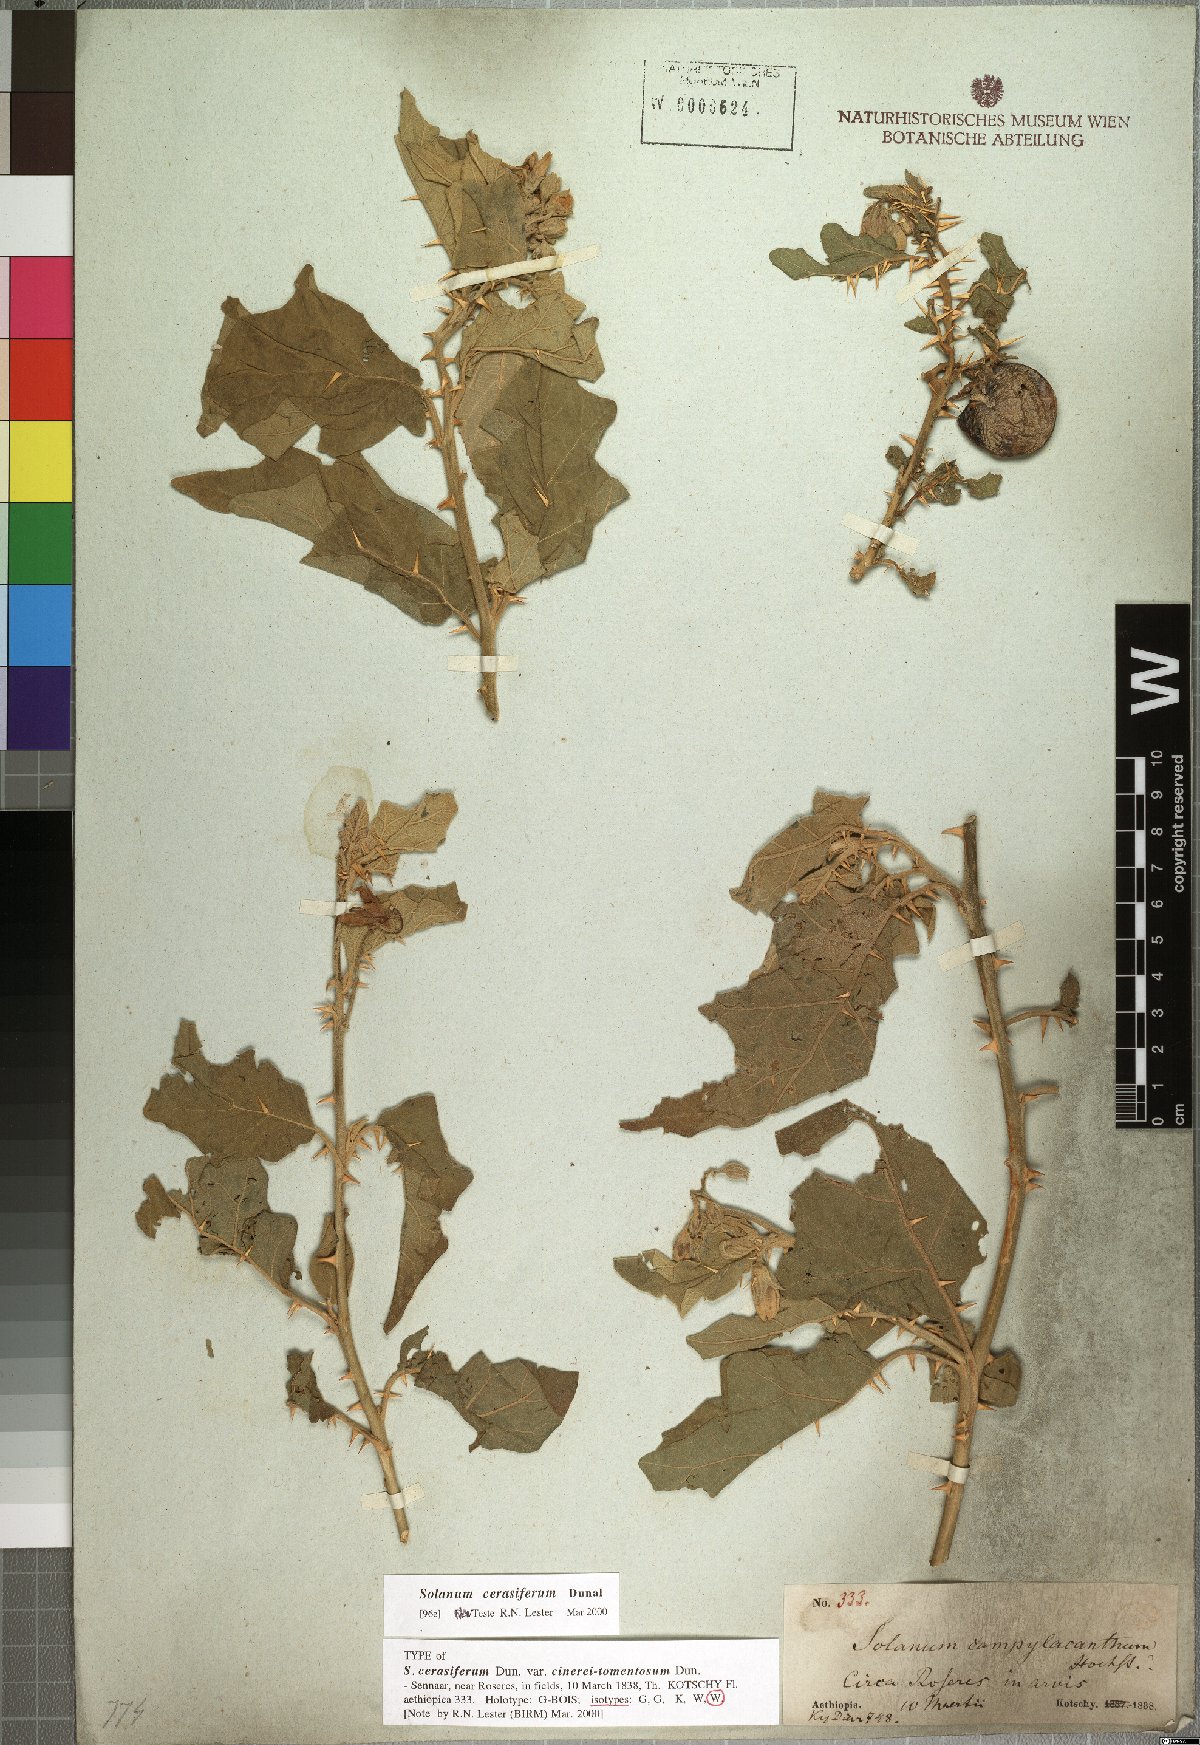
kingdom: Plantae
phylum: Tracheophyta
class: Magnoliopsida
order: Solanales
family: Solanaceae
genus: Solanum
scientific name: Solanum cerasiferum
